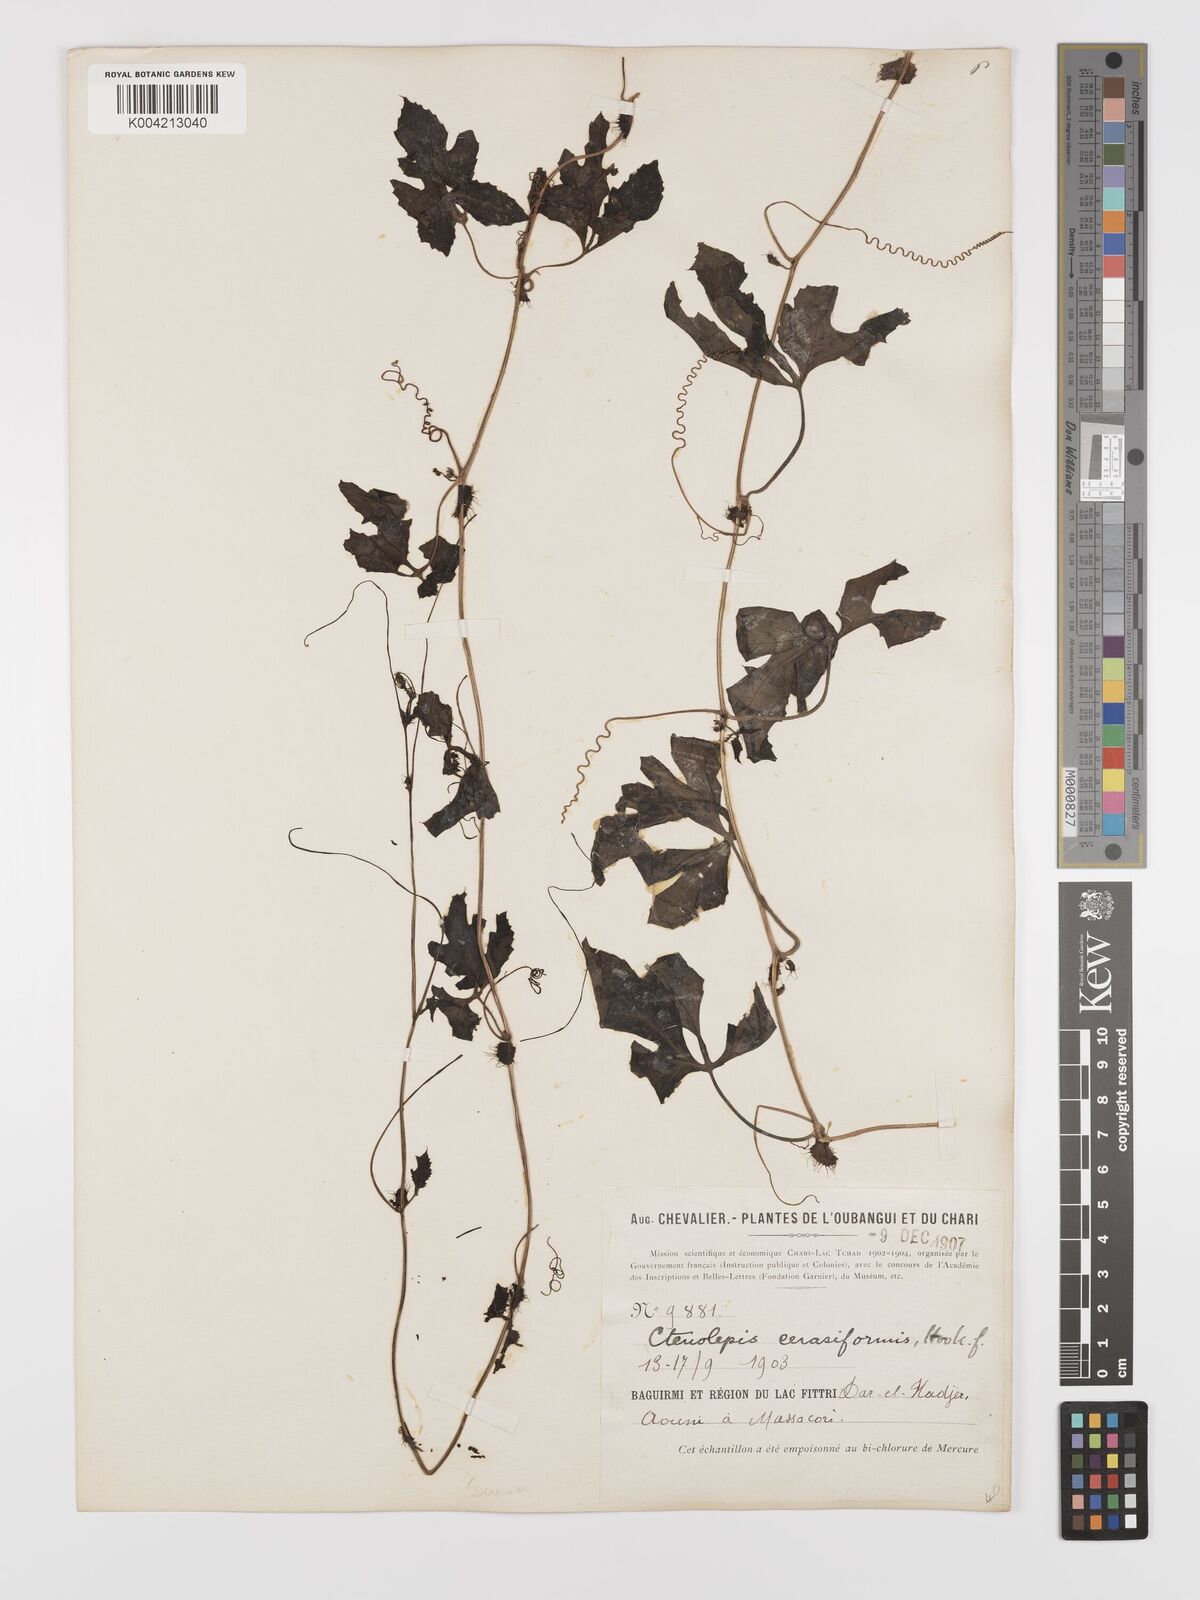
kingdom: Plantae
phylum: Tracheophyta
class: Magnoliopsida
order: Cucurbitales
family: Cucurbitaceae
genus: Blastania
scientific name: Blastania cerasiformis
